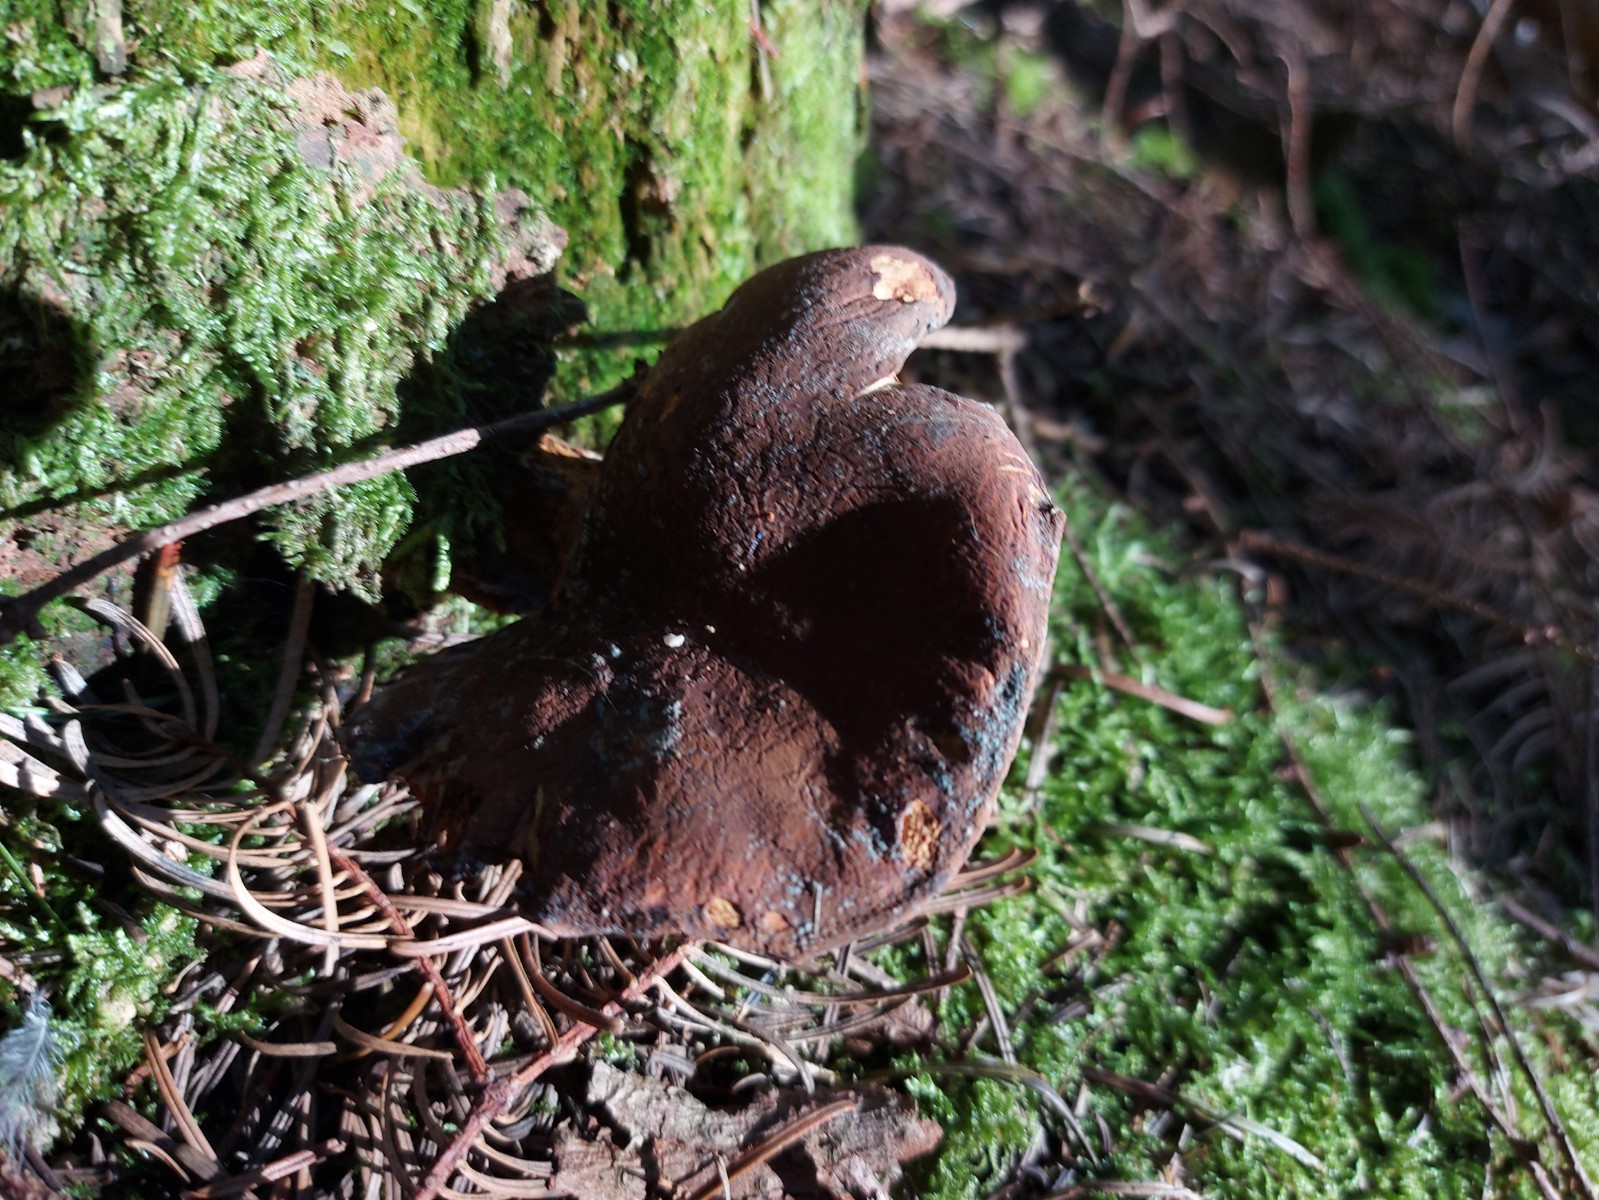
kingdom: Fungi
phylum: Basidiomycota
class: Agaricomycetes
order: Boletales
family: Tapinellaceae
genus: Tapinella
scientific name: Tapinella atrotomentosa
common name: sortfiltet viftesvamp
